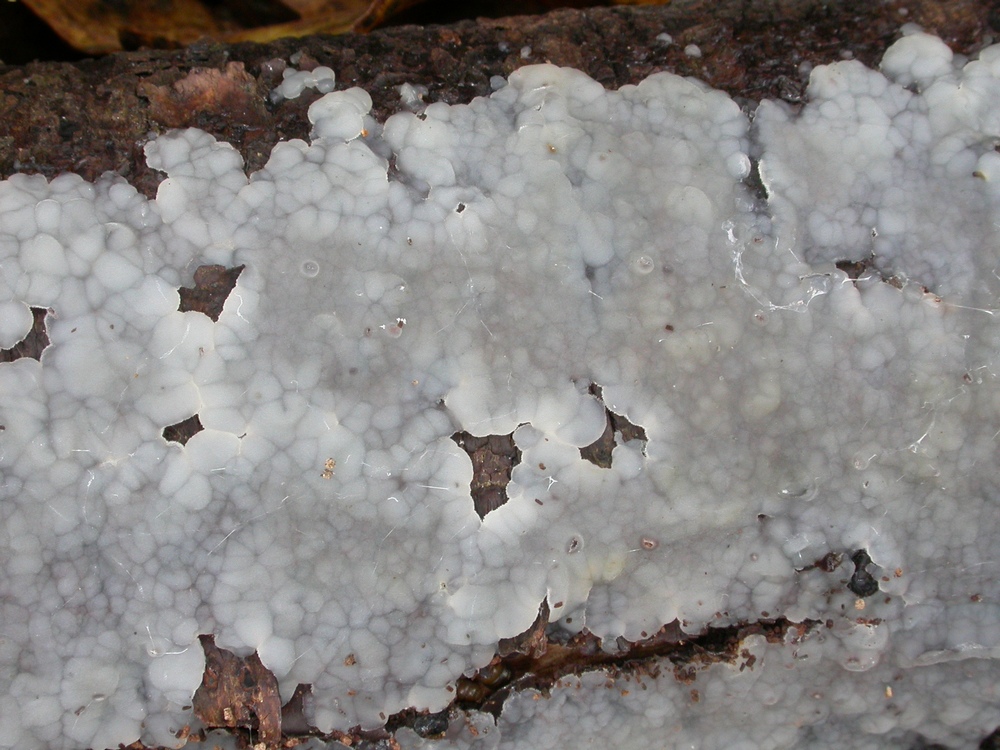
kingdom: Fungi
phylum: Basidiomycota
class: Agaricomycetes
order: Auriculariales
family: Auriculariaceae
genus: Exidia
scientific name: Exidia thuretiana
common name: hvidlig bævretop
